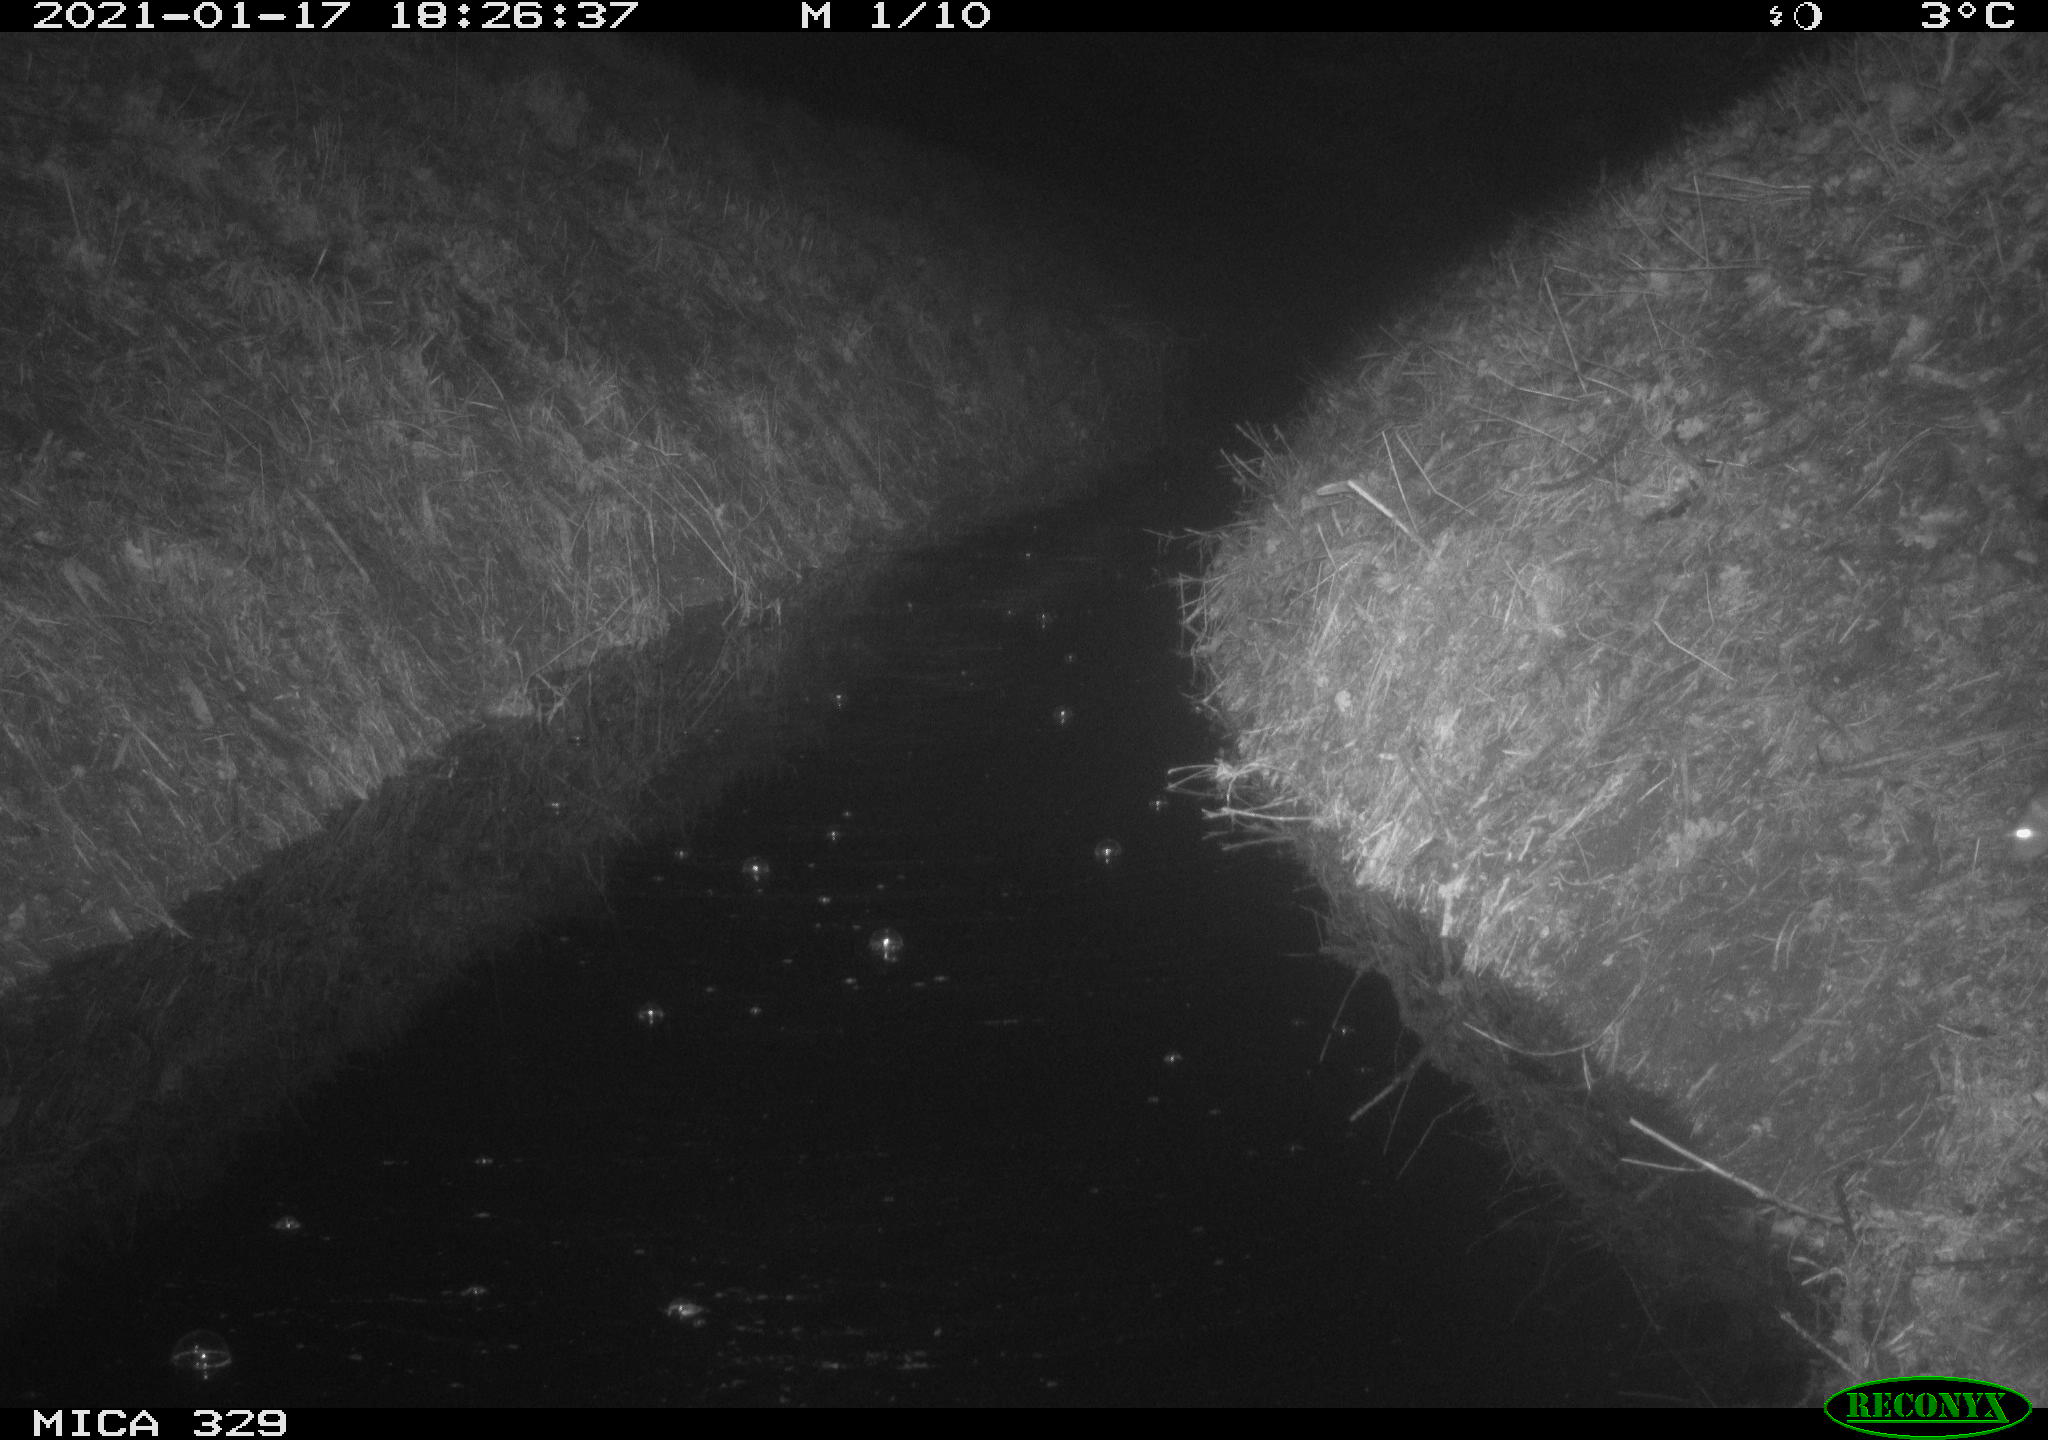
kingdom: Animalia
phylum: Chordata
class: Mammalia
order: Rodentia
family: Muridae
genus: Rattus
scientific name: Rattus norvegicus
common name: Brown rat
